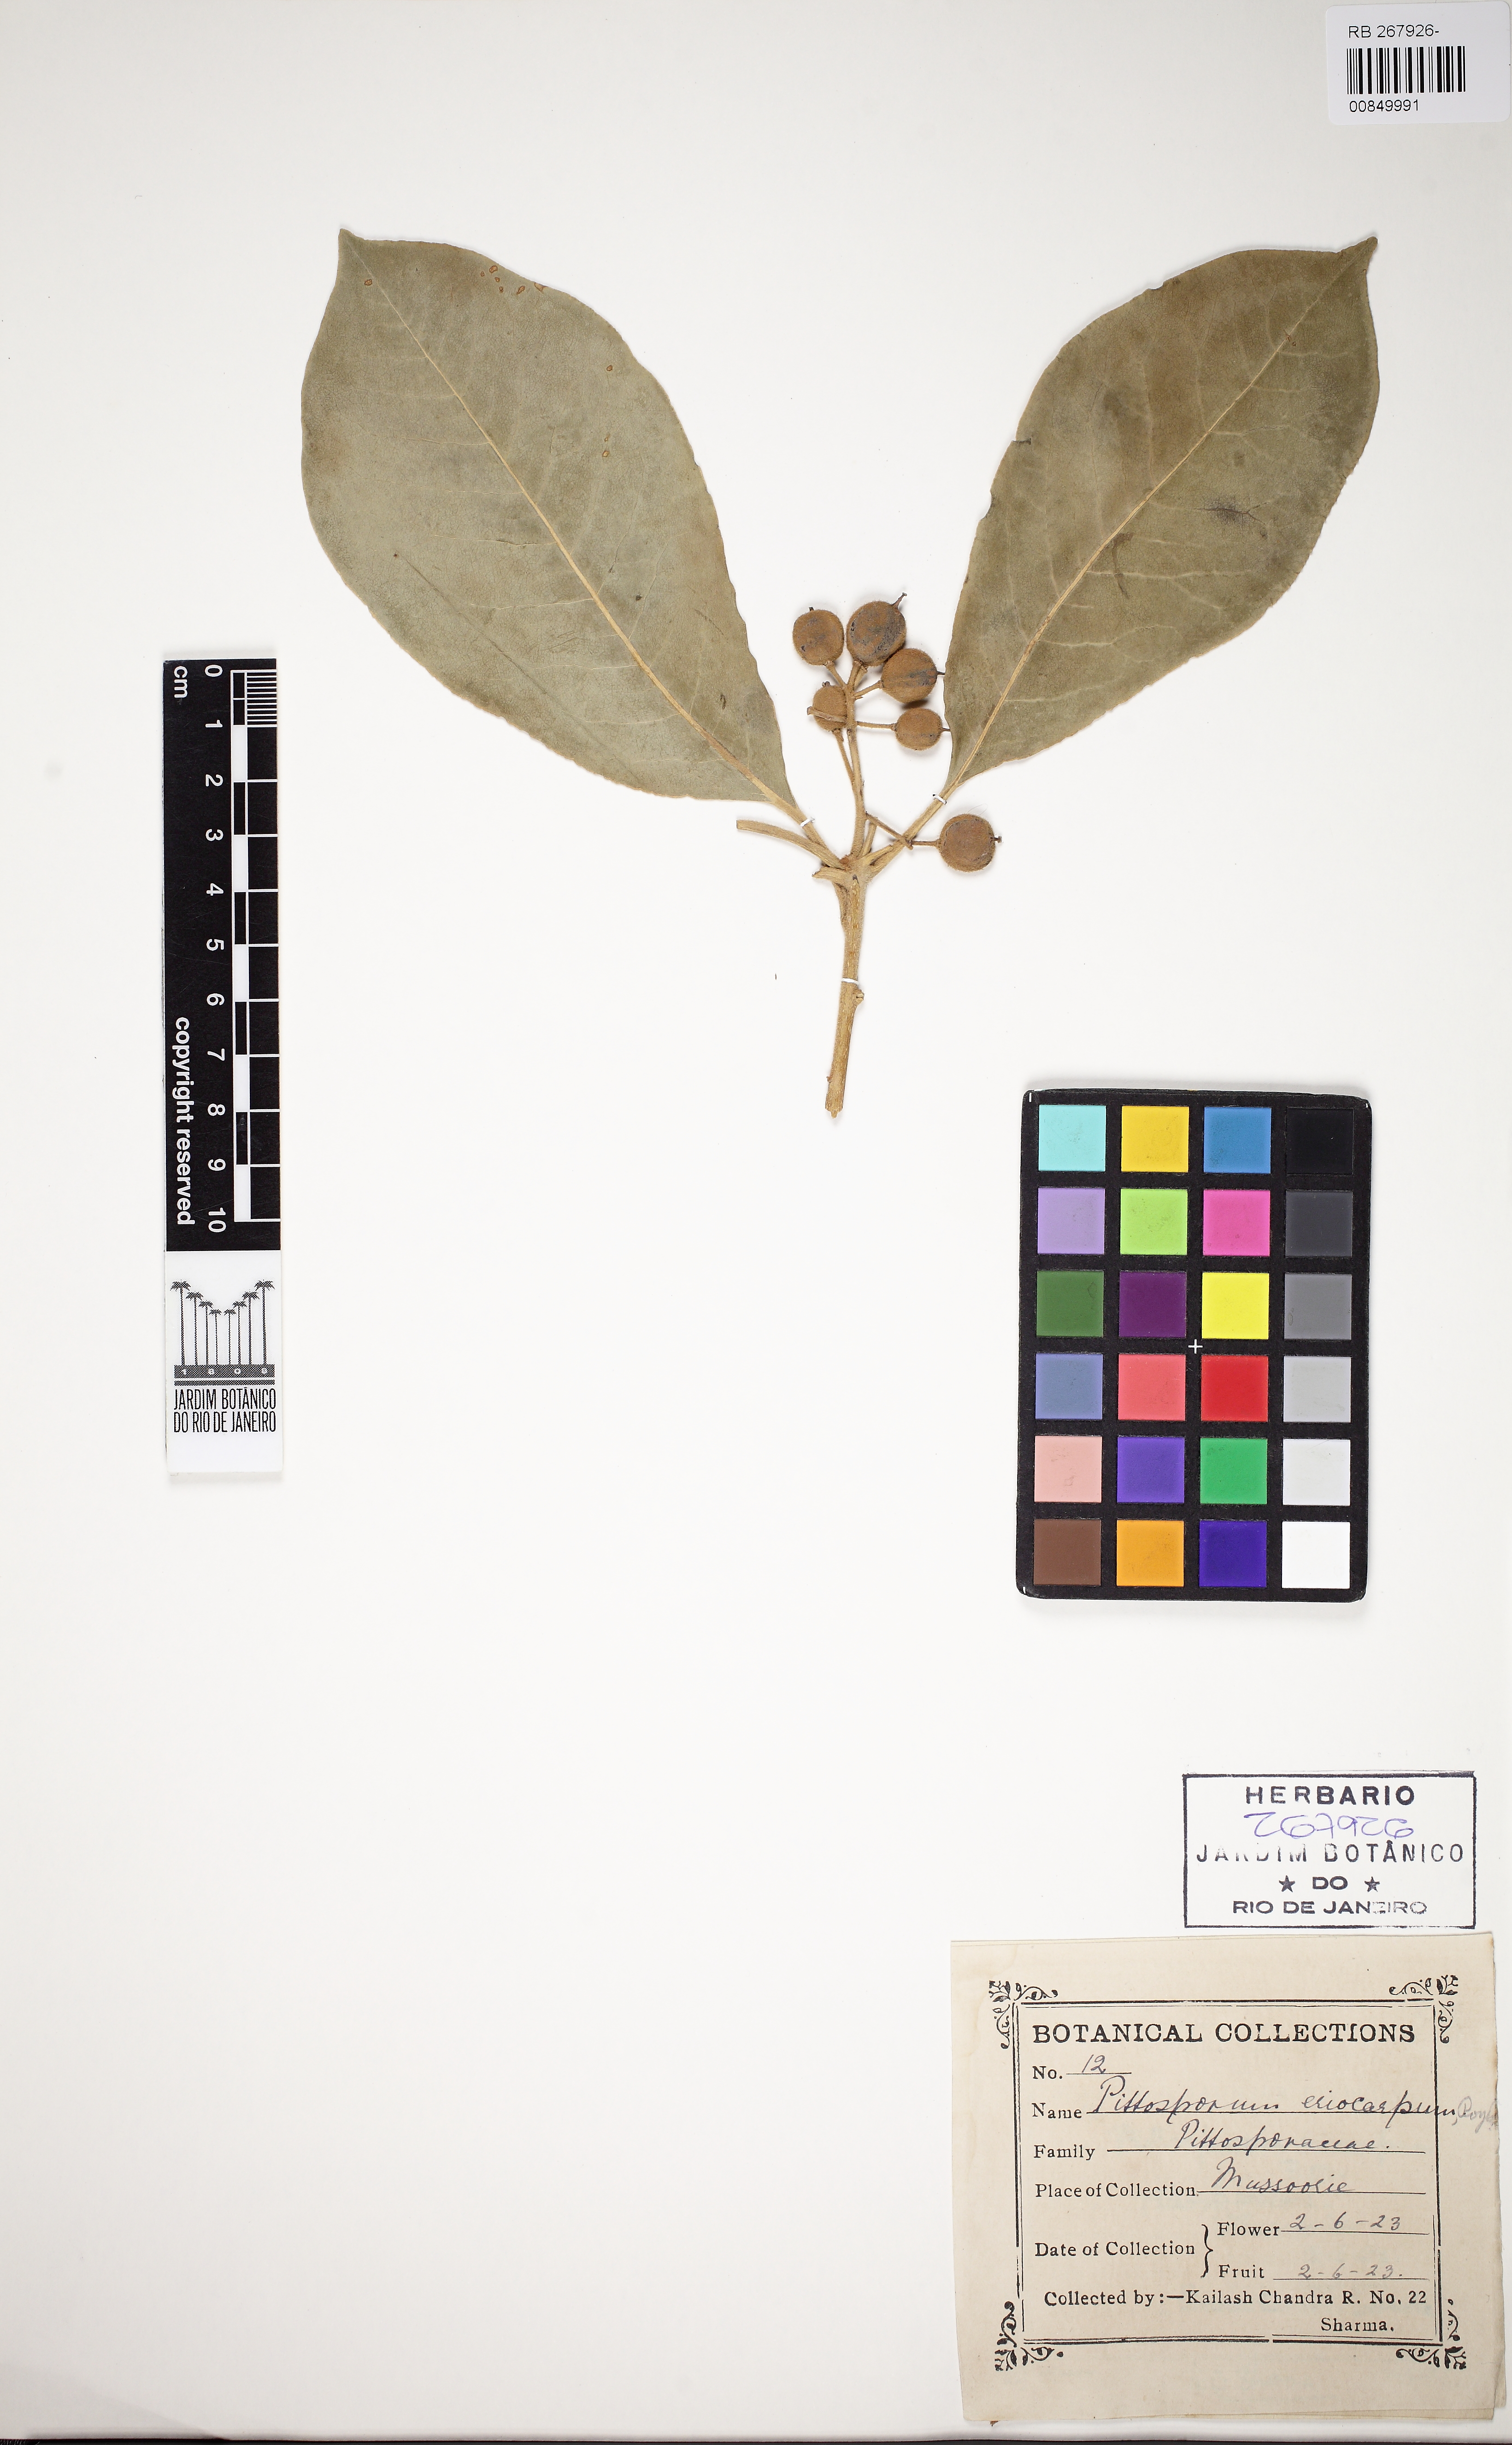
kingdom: Plantae
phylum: Tracheophyta
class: Magnoliopsida
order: Apiales
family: Pittosporaceae
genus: Pittosporum
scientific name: Pittosporum eriocarpum
